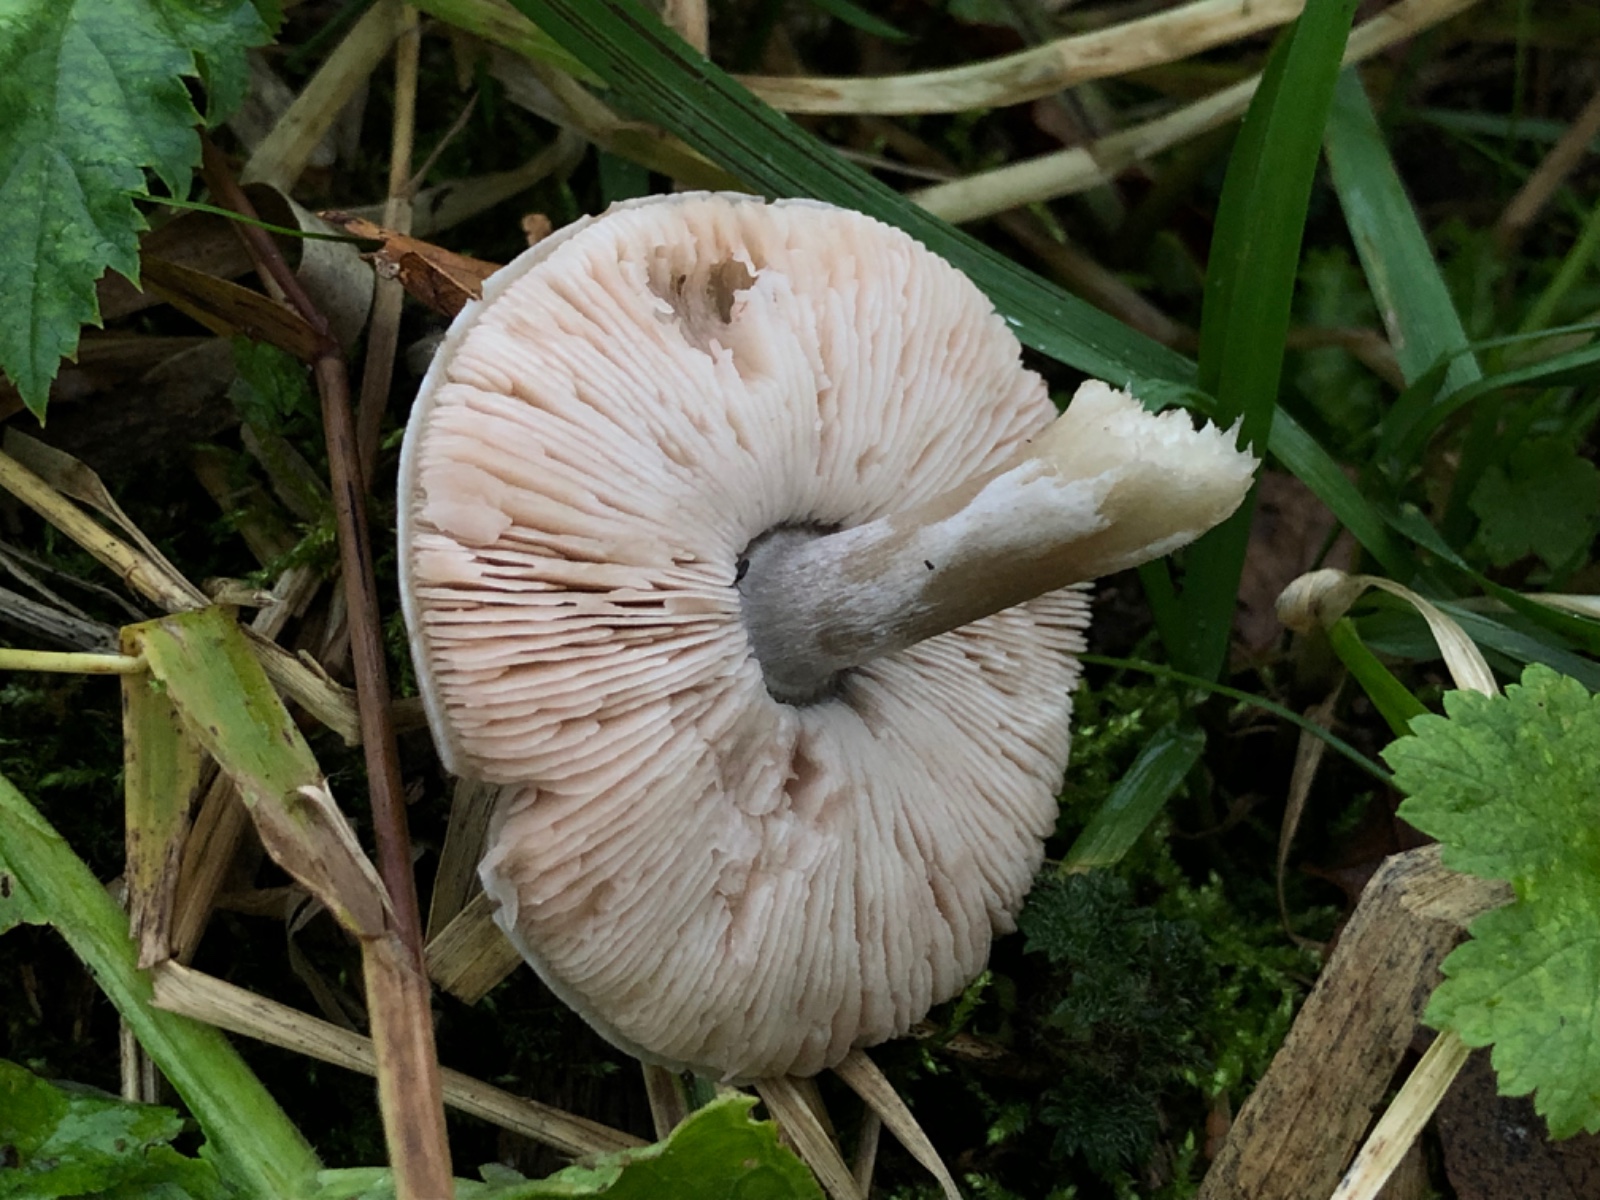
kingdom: Fungi
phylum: Basidiomycota
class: Agaricomycetes
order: Agaricales
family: Pluteaceae
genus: Volvopluteus
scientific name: Volvopluteus gloiocephalus
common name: høj posesvamp
